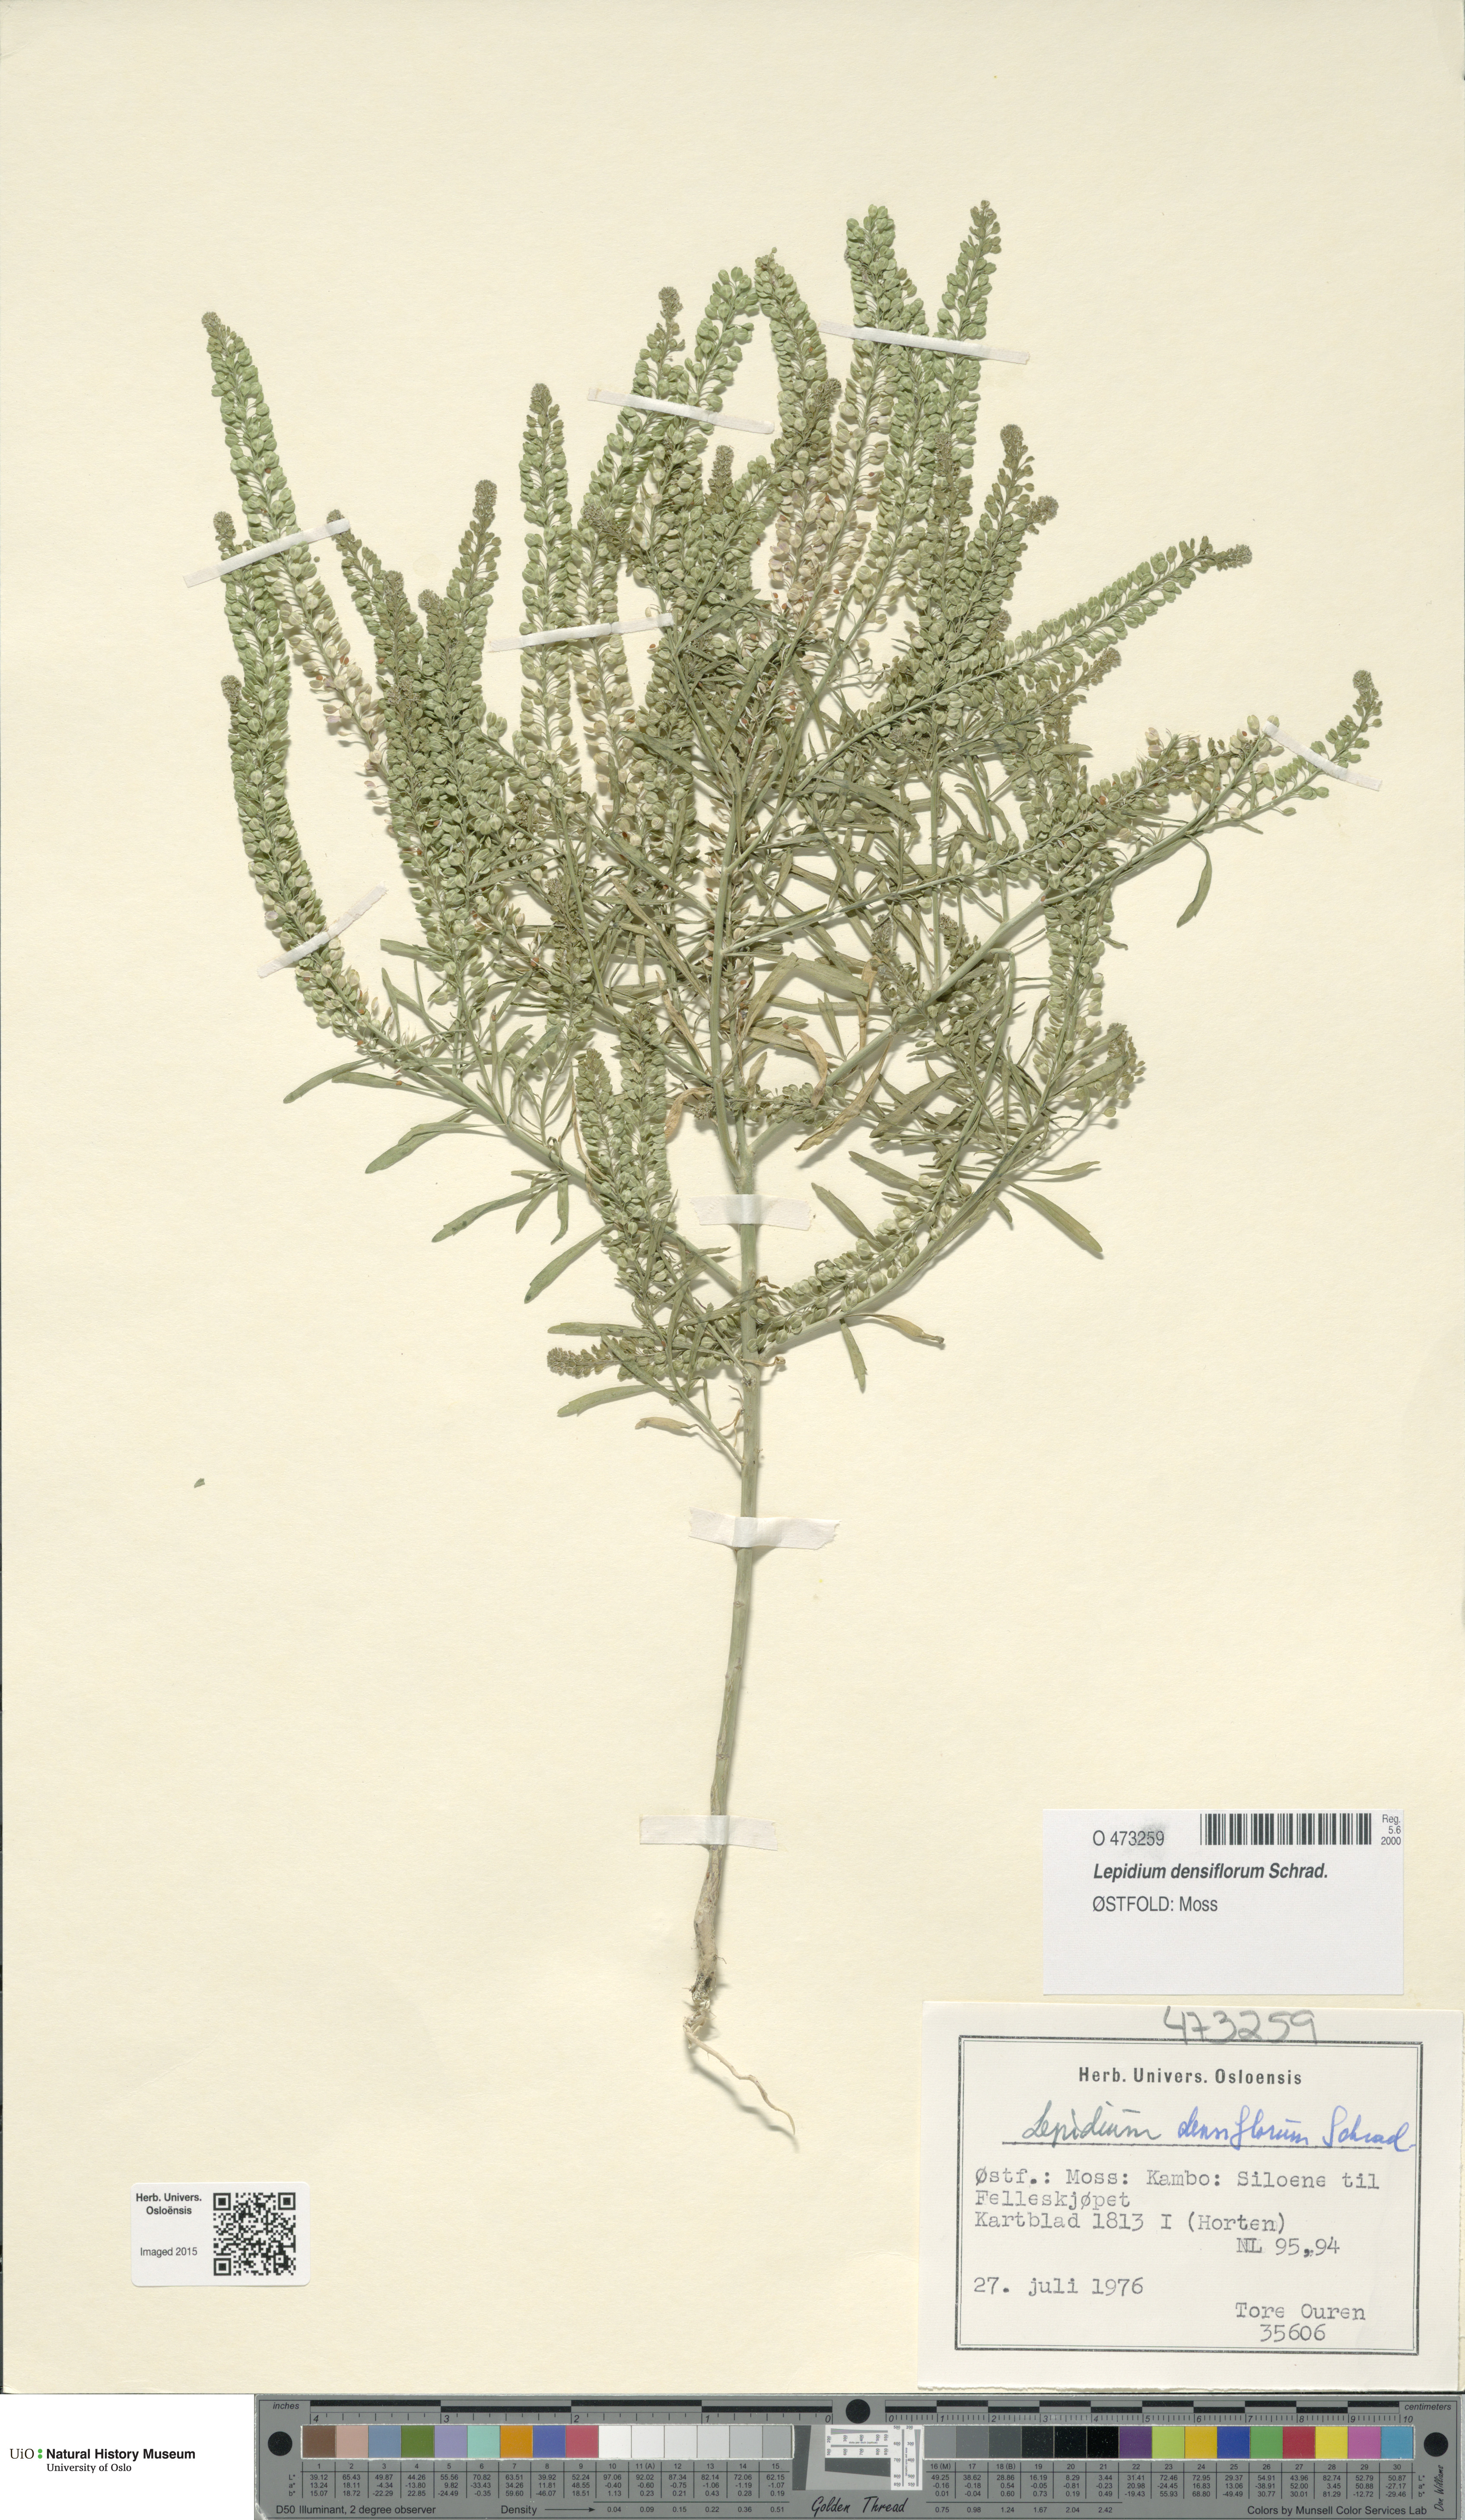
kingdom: Plantae
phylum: Tracheophyta
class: Magnoliopsida
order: Brassicales
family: Brassicaceae
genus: Lepidium
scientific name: Lepidium densiflorum
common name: Miner's pepperwort
